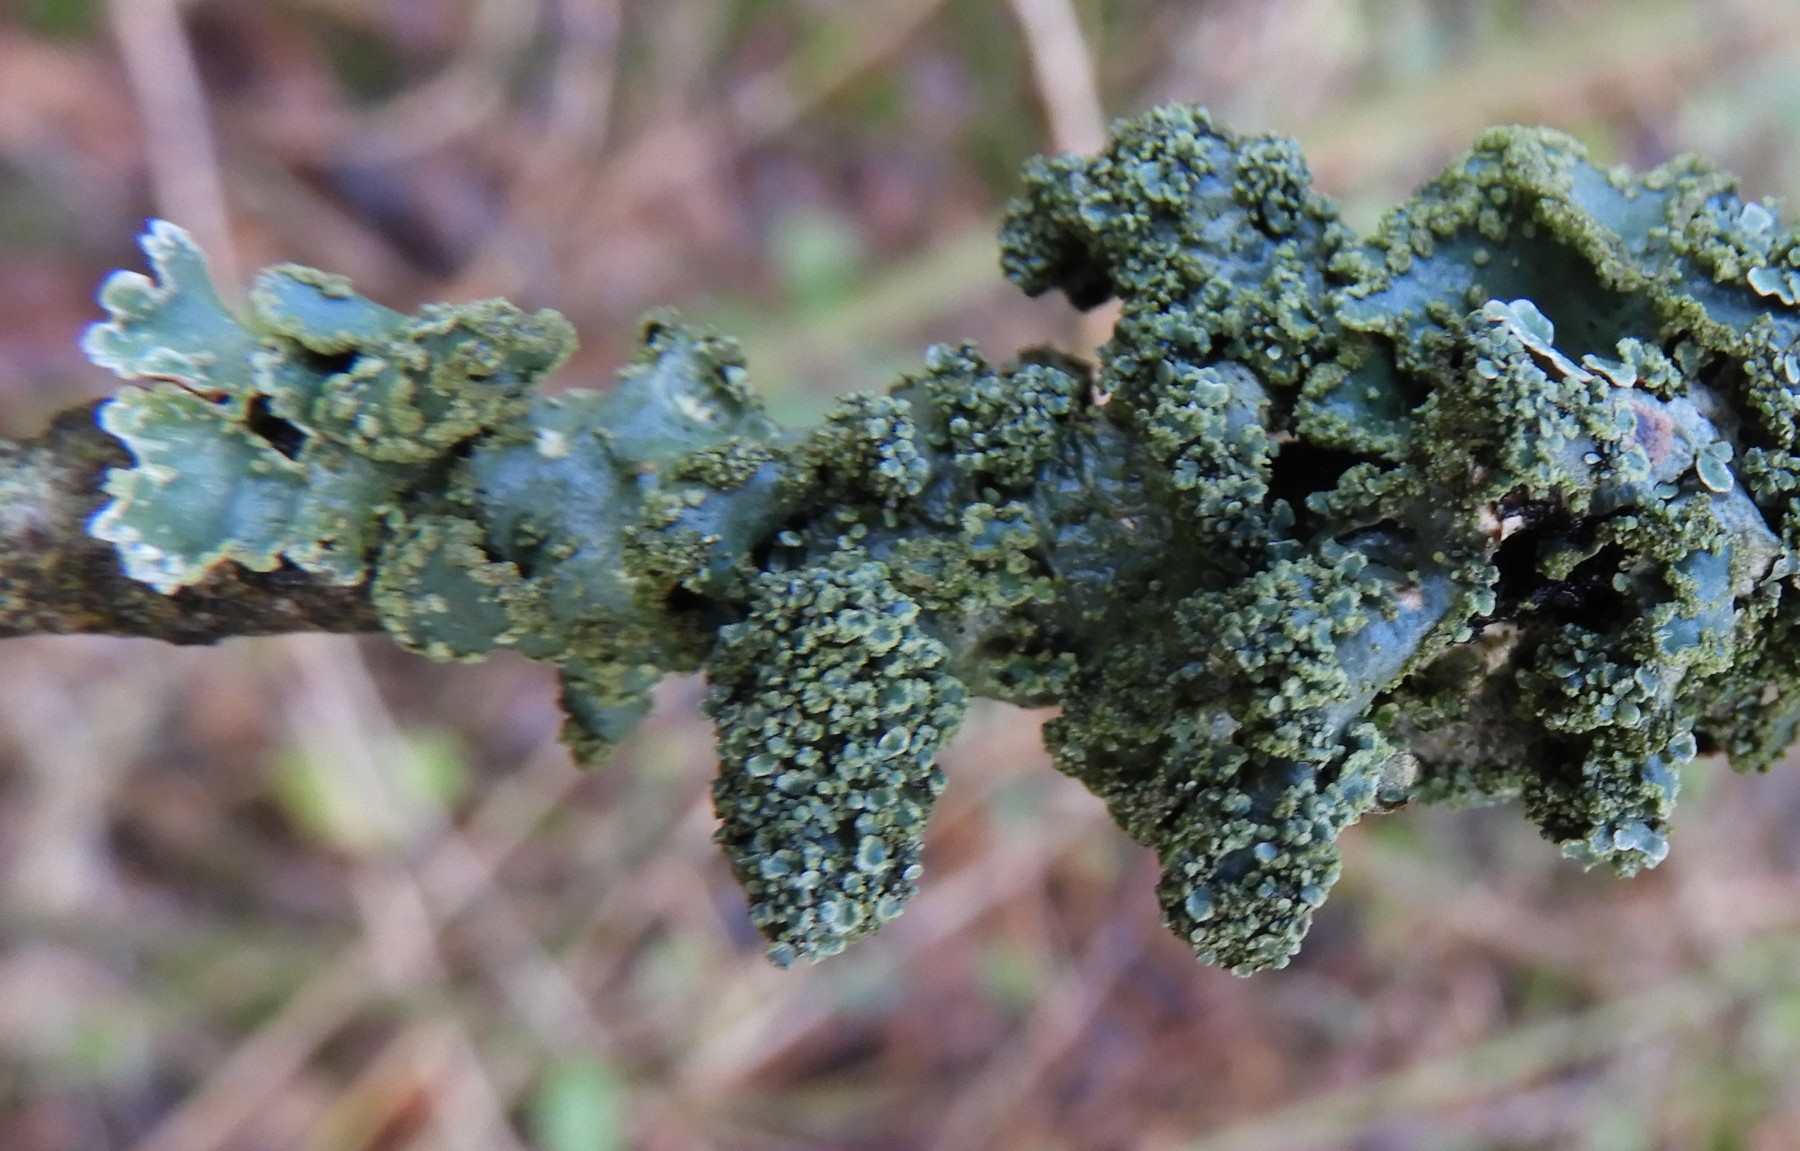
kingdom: Fungi
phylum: Ascomycota
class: Lecanoromycetes
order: Lecanorales
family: Parmeliaceae
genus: Parmelia
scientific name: Parmelia sulcata
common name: rynket skållav
